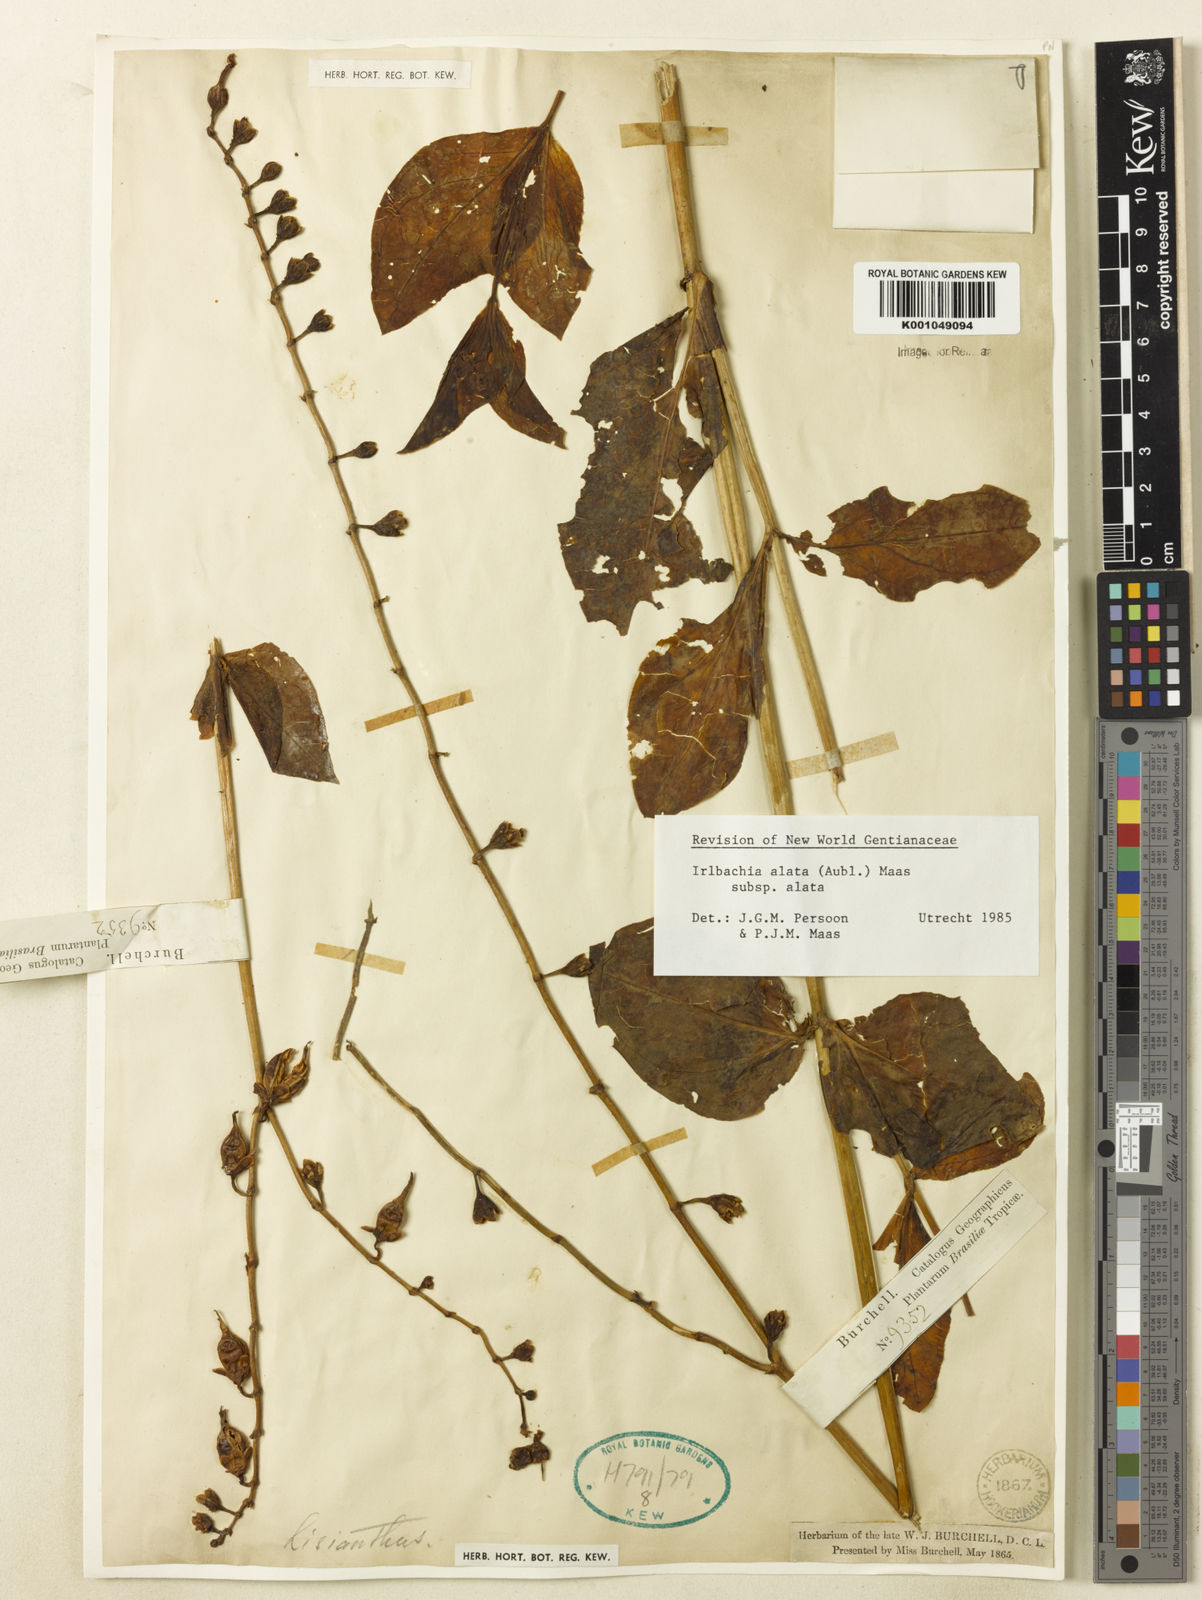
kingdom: Plantae
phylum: Tracheophyta
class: Magnoliopsida
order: Gentianales
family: Gentianaceae
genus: Chelonanthus
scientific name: Chelonanthus alatus
